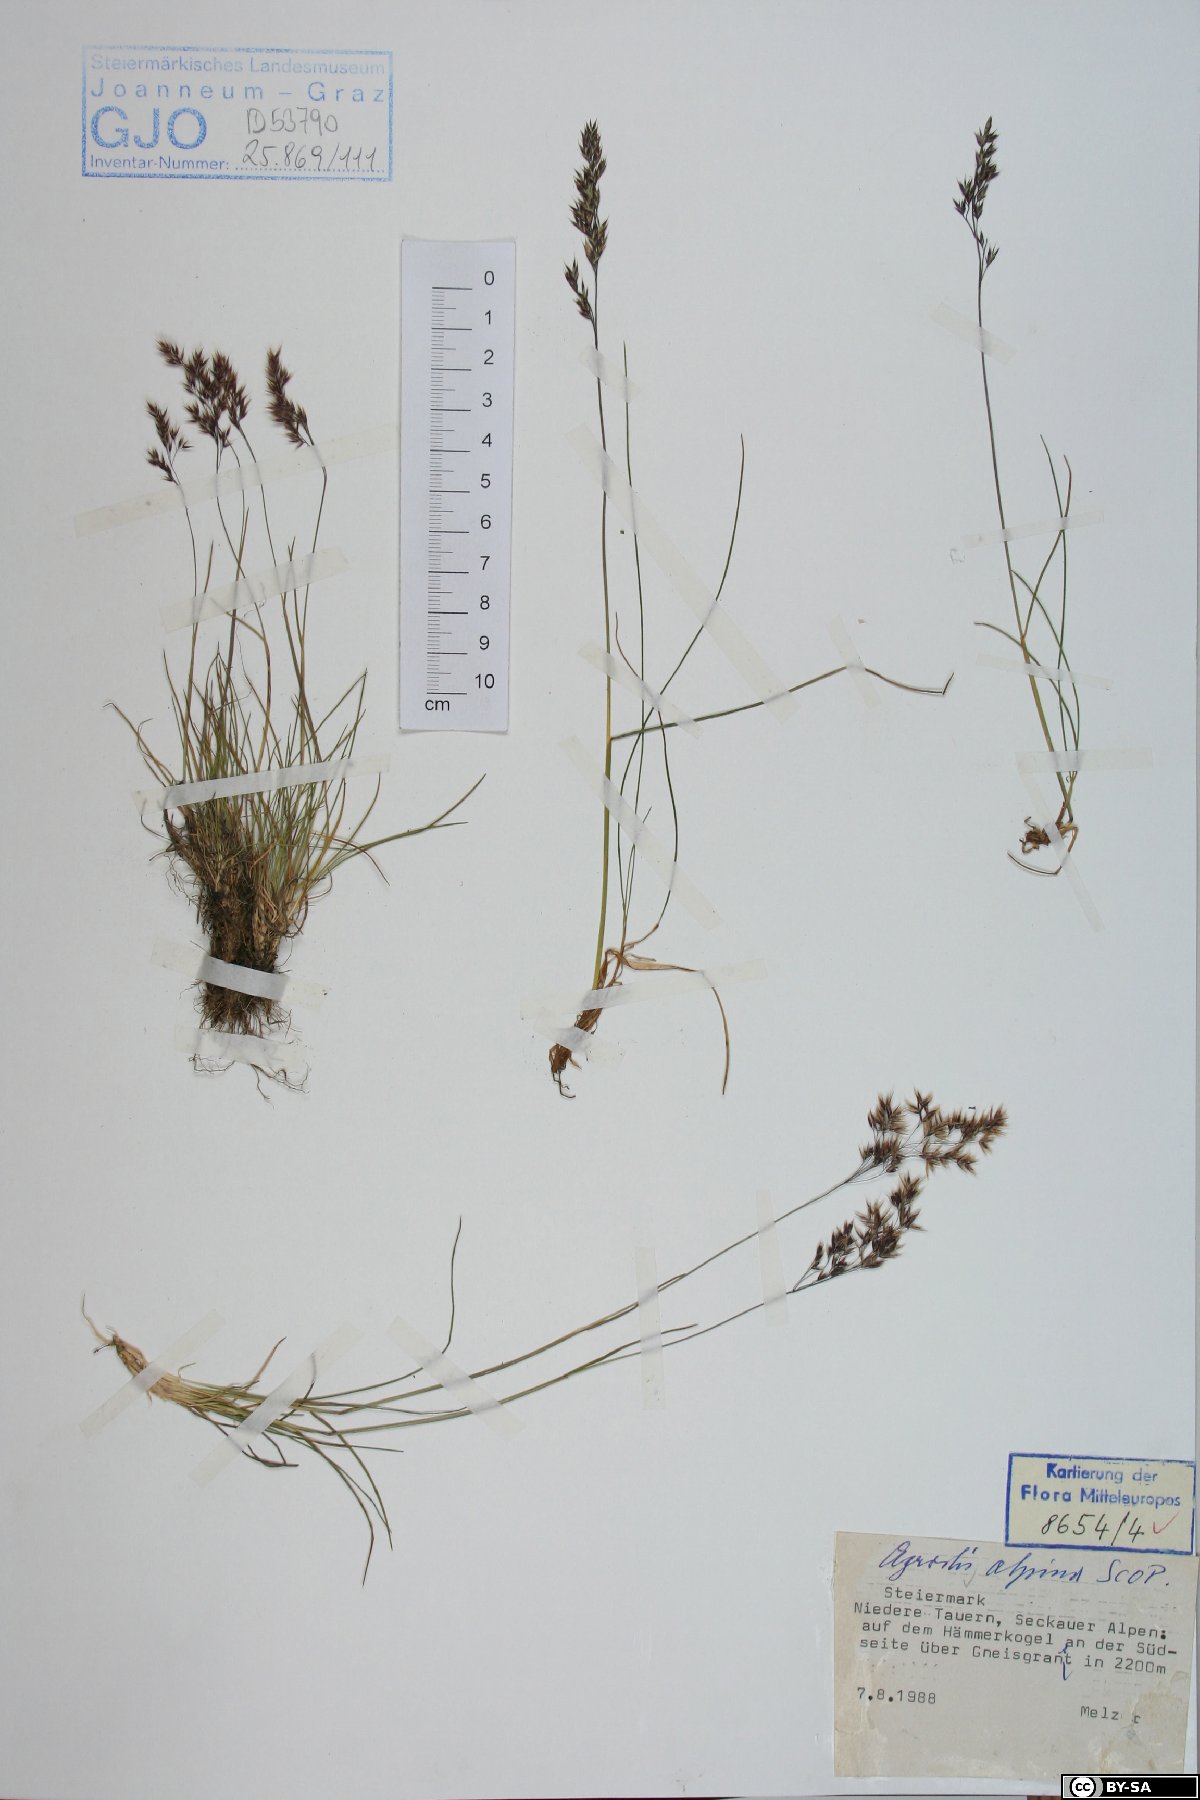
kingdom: Plantae
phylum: Tracheophyta
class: Liliopsida
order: Poales
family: Poaceae
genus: Alpagrostis
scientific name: Alpagrostis alpina
